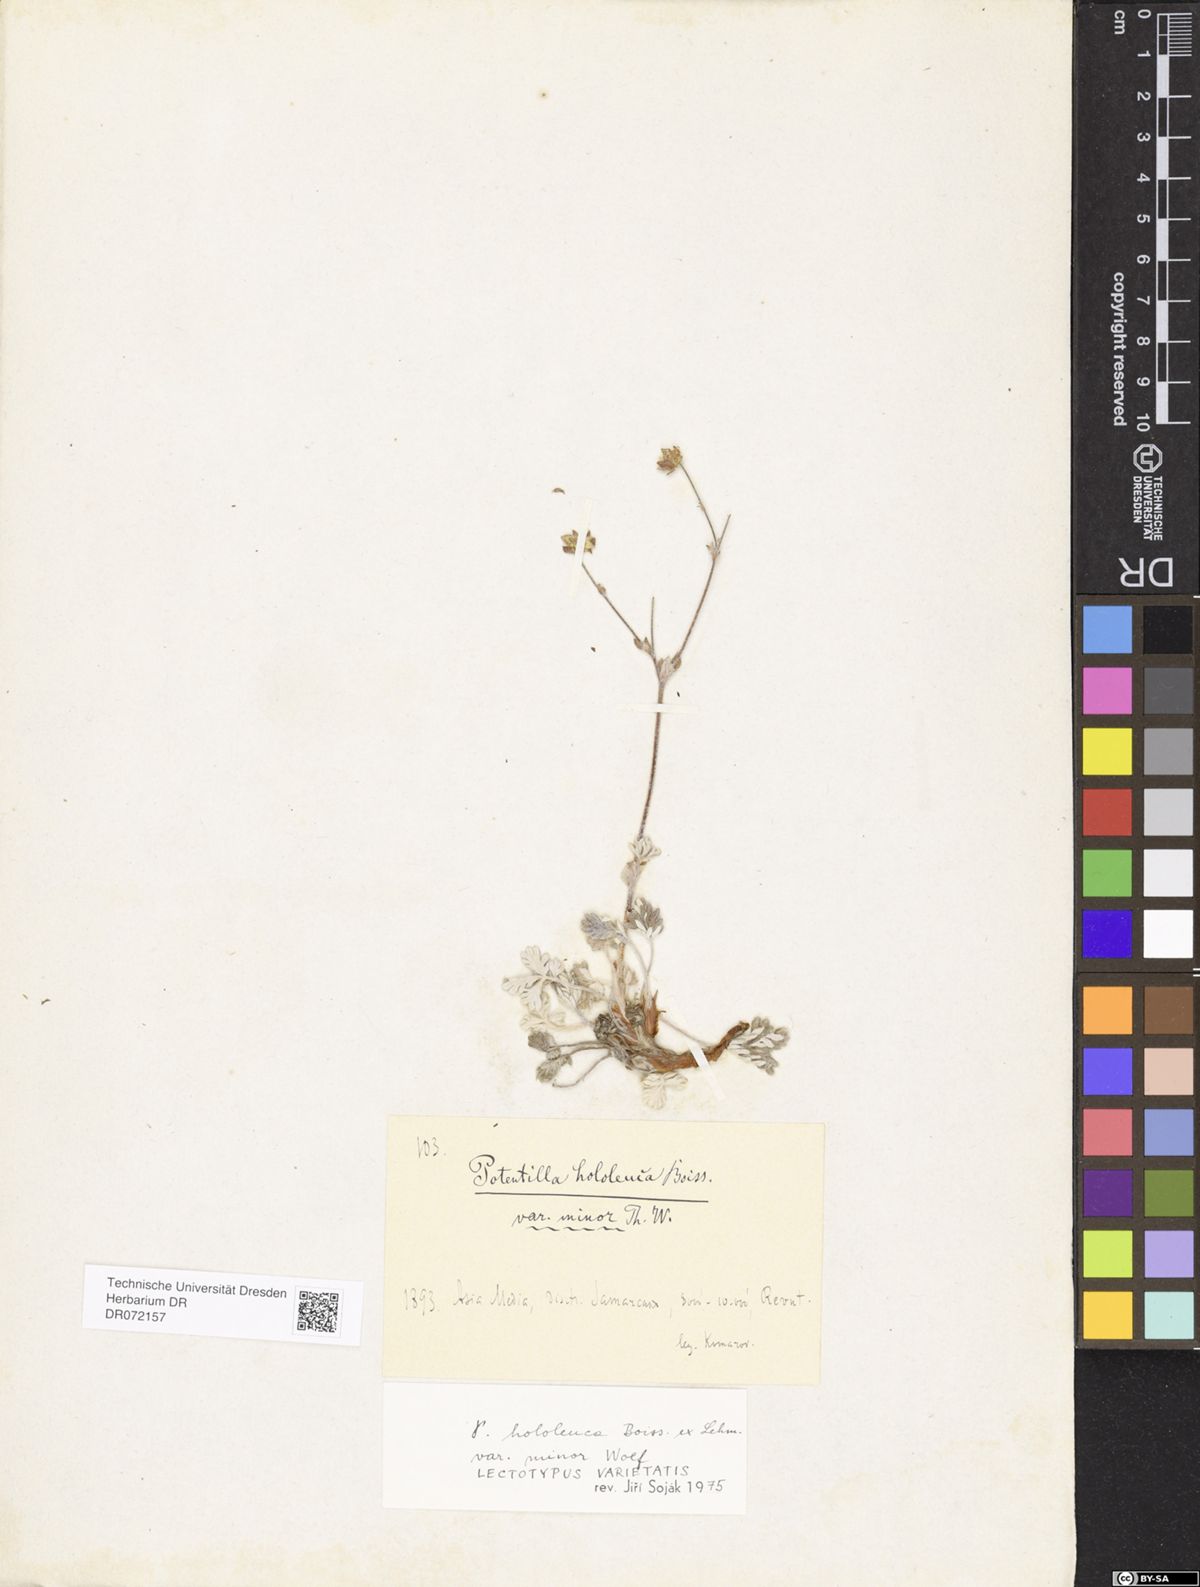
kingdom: Plantae
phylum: Tracheophyta
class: Magnoliopsida
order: Rosales
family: Rosaceae
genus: Potentilla
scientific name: Potentilla hololeuca
